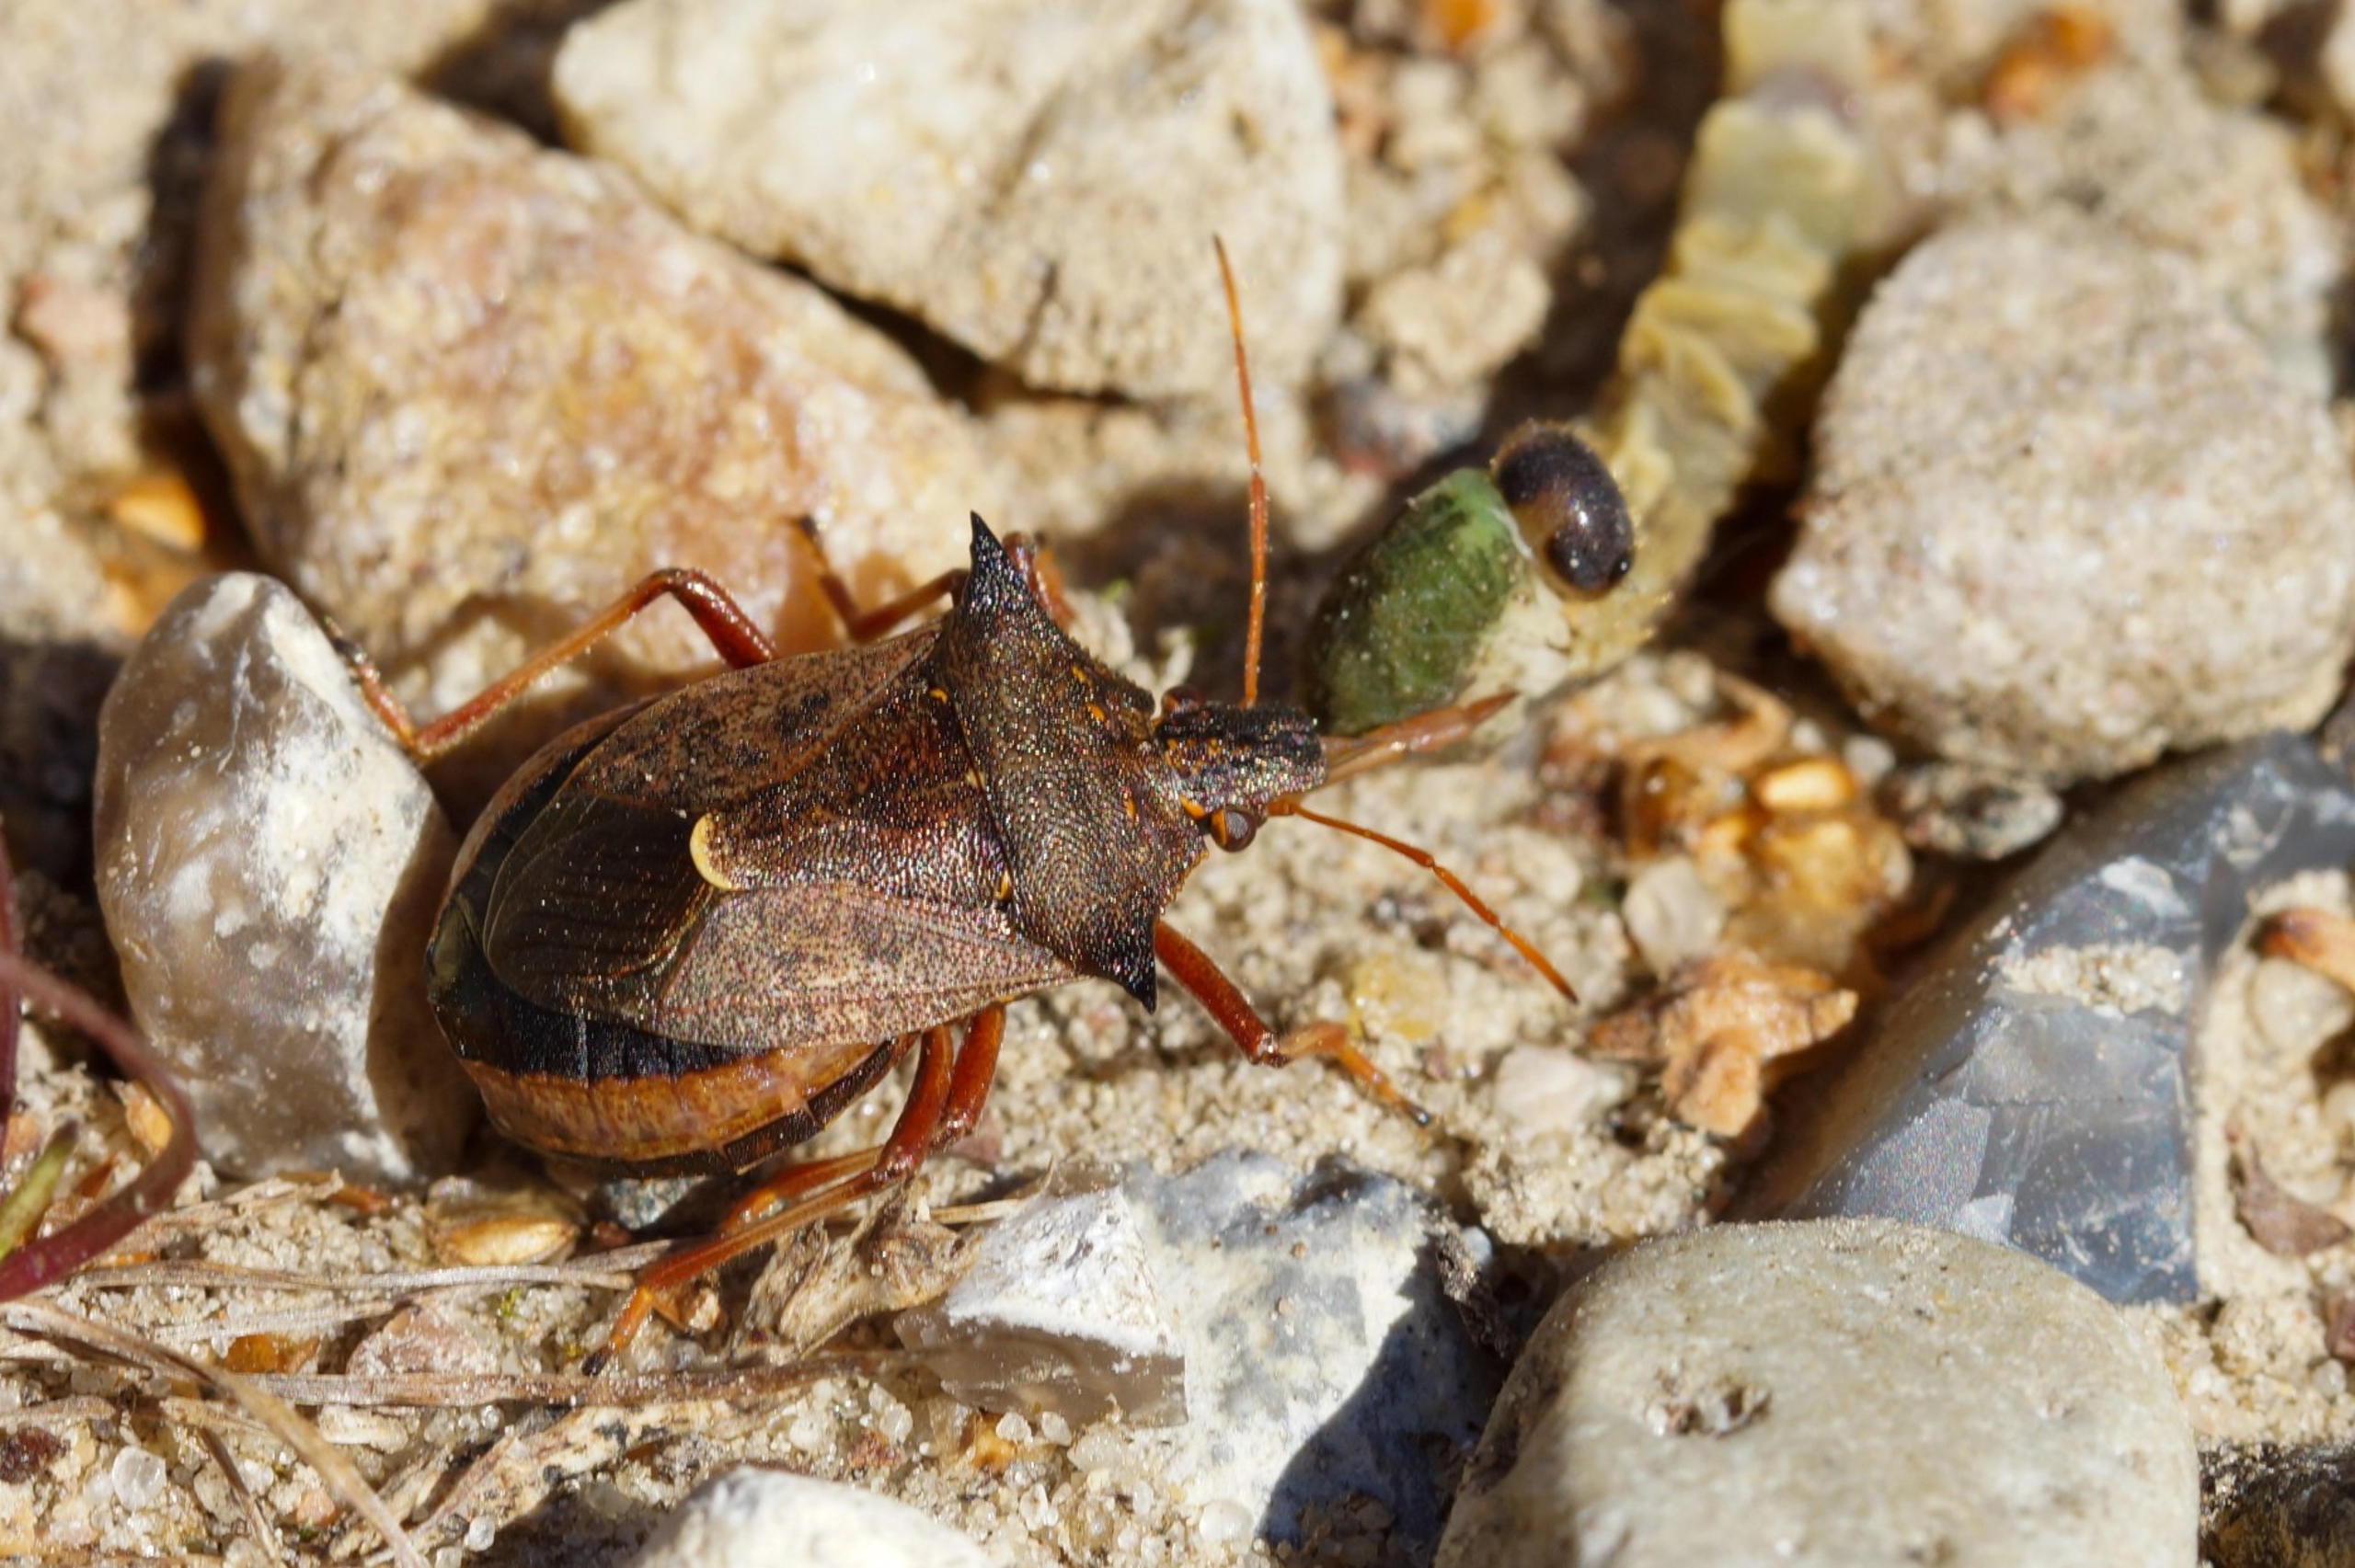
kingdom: Animalia
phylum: Arthropoda
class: Insecta
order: Hemiptera
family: Pentatomidae
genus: Picromerus
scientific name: Picromerus bidens
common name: Torntæge
